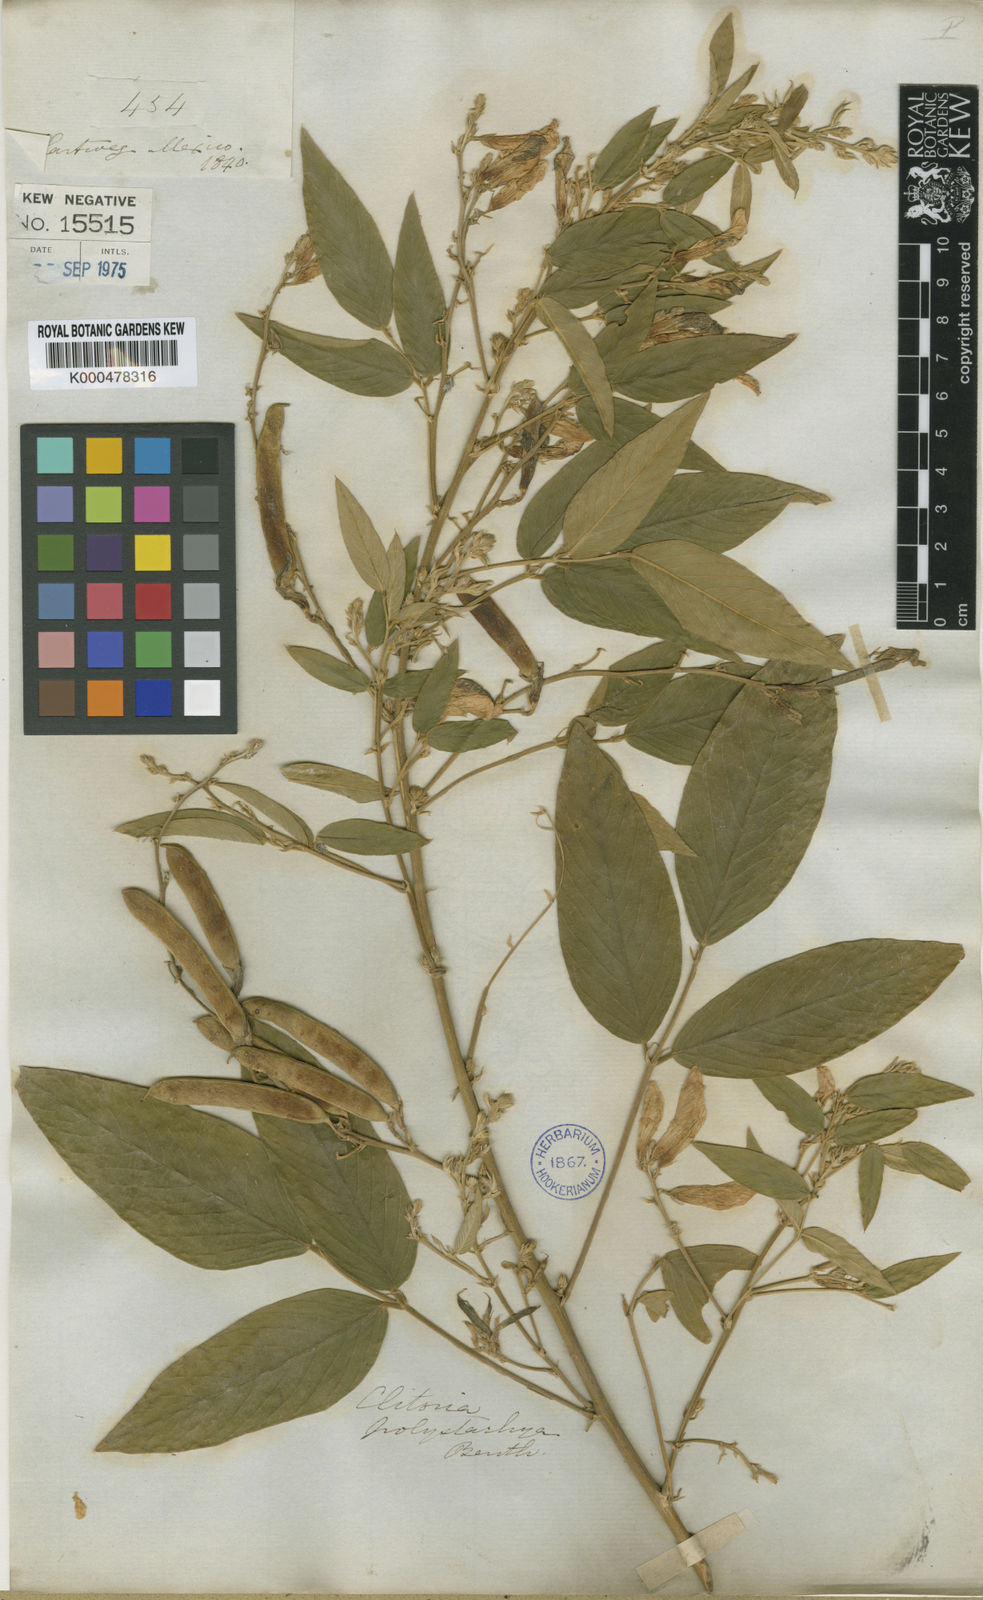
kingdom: Plantae
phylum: Tracheophyta
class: Magnoliopsida
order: Fabales
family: Fabaceae
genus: Clitoria
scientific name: Clitoria polystachya
